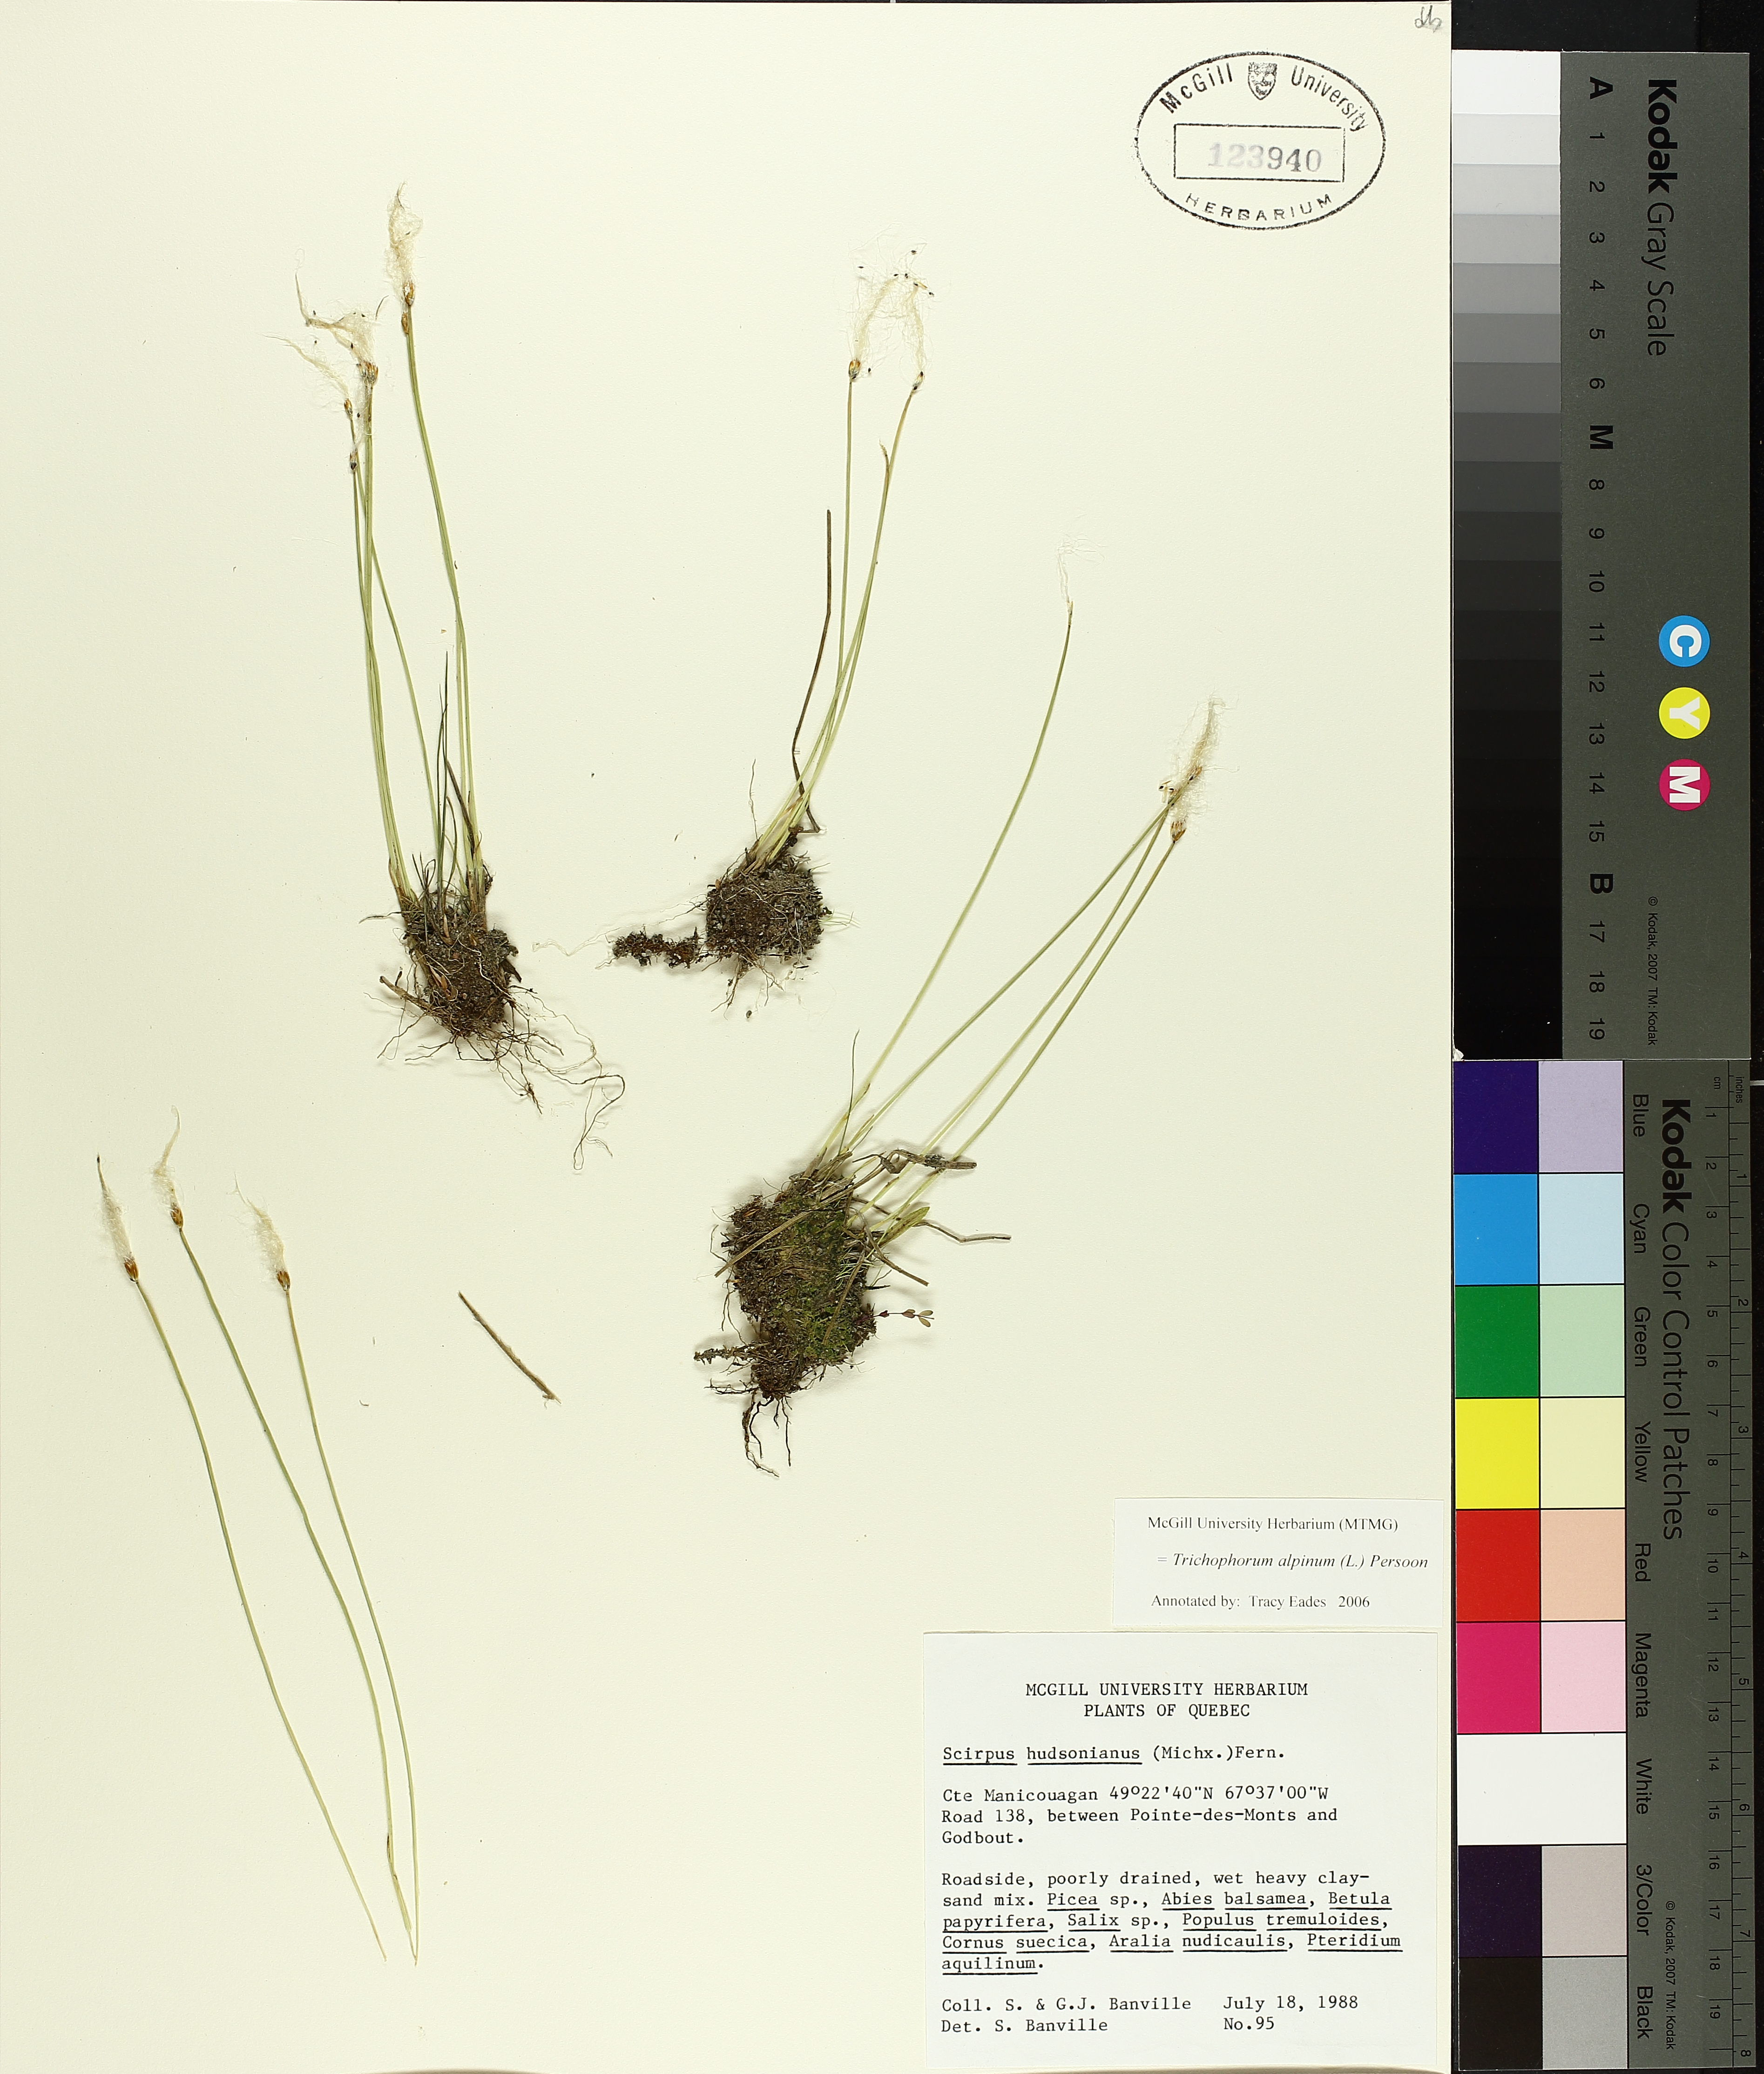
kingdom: Plantae
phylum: Tracheophyta
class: Liliopsida
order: Poales
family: Cyperaceae
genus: Trichophorum
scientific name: Trichophorum alpinum
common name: Alpine bulrush
